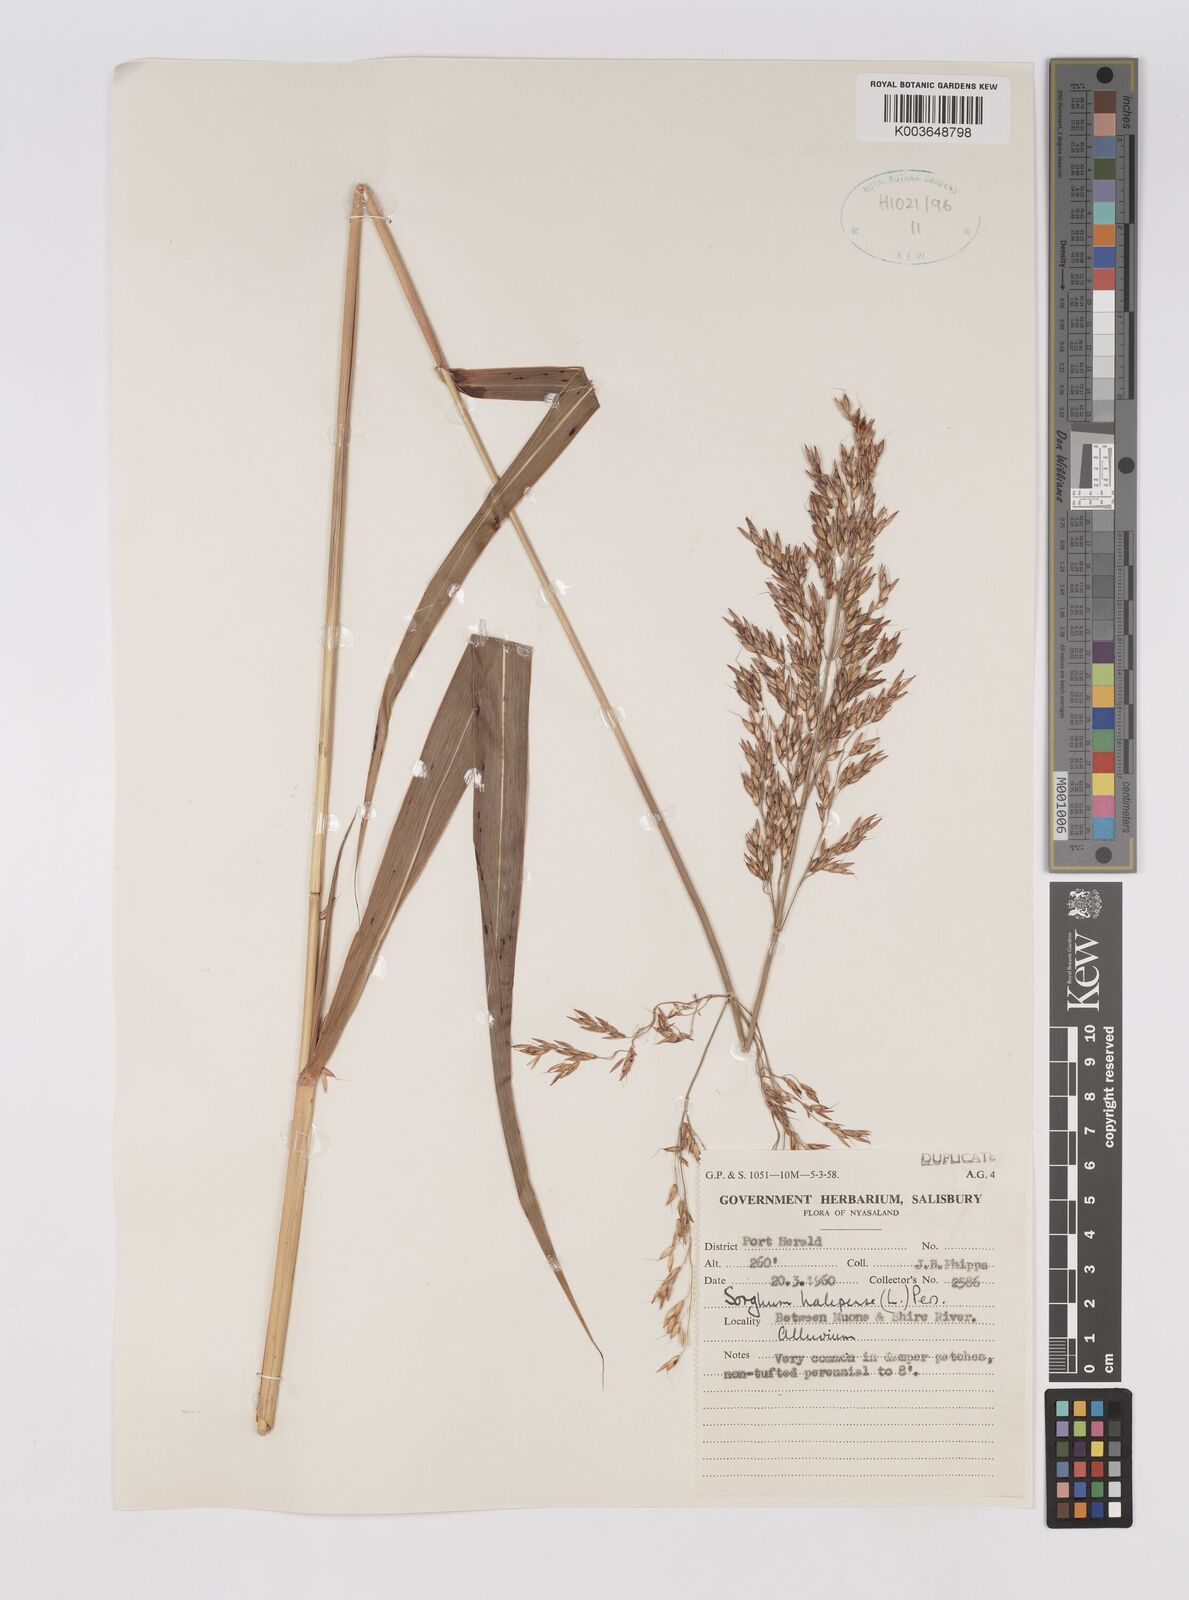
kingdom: Plantae
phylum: Tracheophyta
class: Liliopsida
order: Poales
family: Poaceae
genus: Sorghum
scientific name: Sorghum halepense
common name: Johnson-grass
